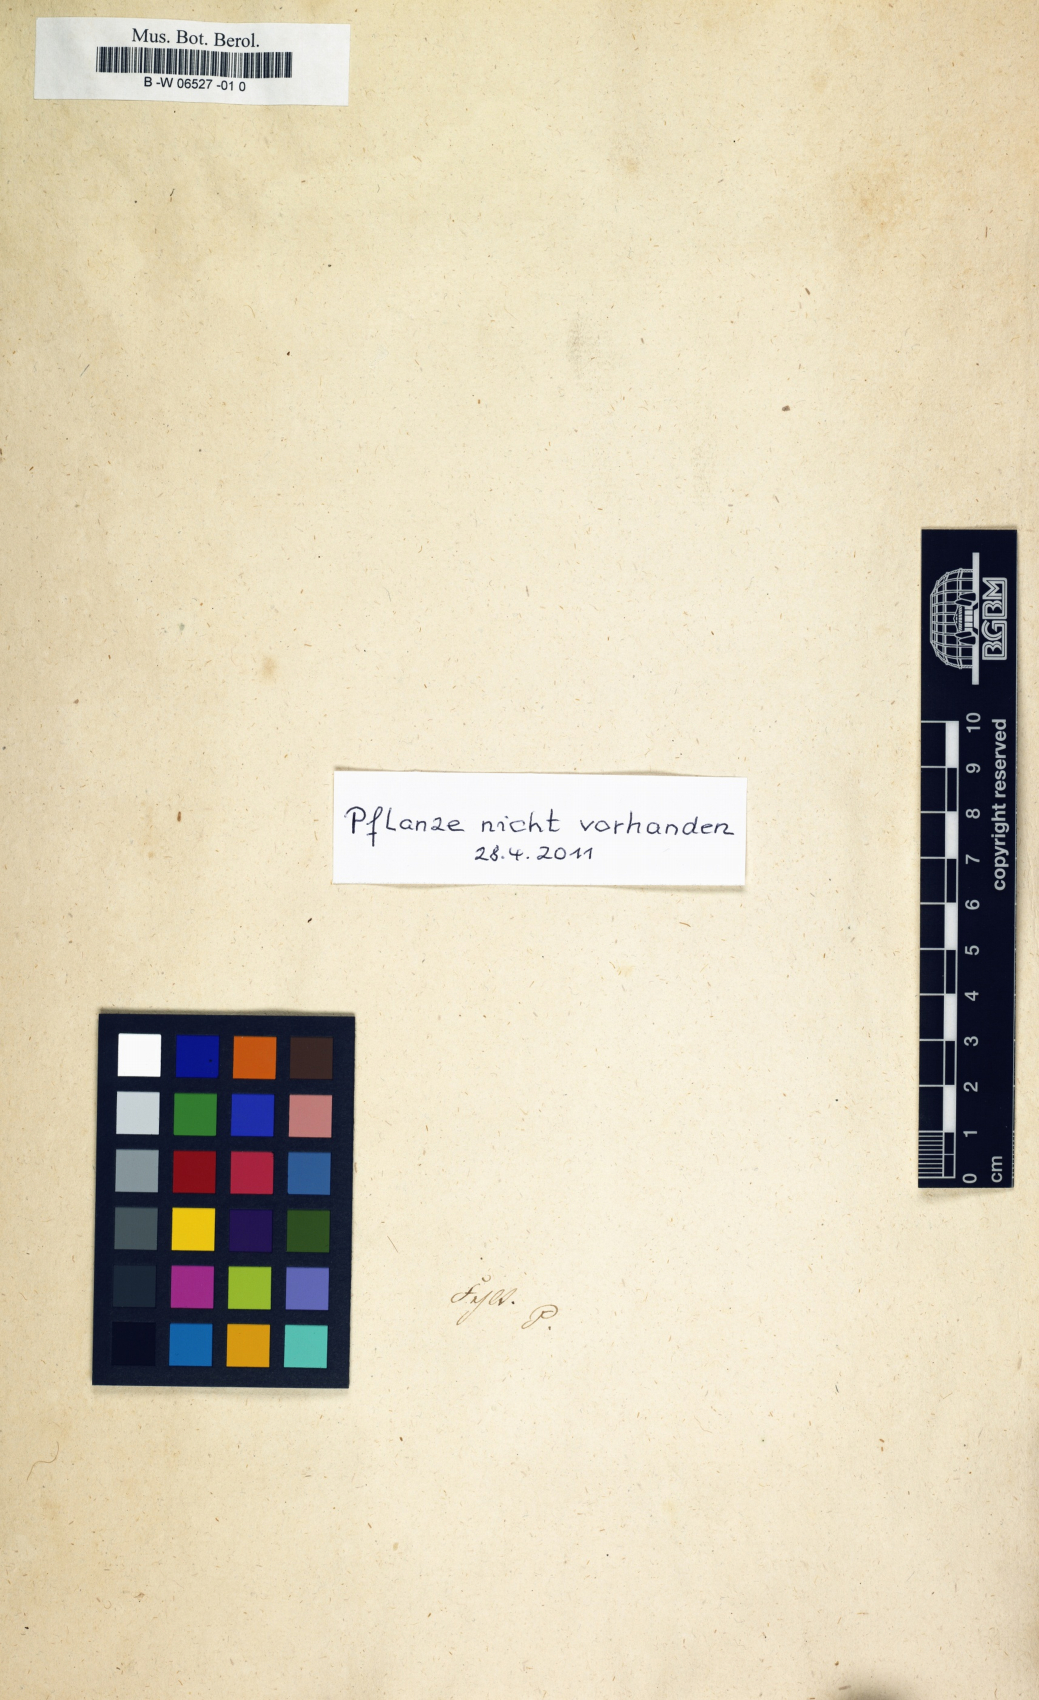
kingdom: Plantae
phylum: Tracheophyta
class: Liliopsida
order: Liliales
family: Liliaceae
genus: Lilium
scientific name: Lilium candidum
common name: Madonna lily
